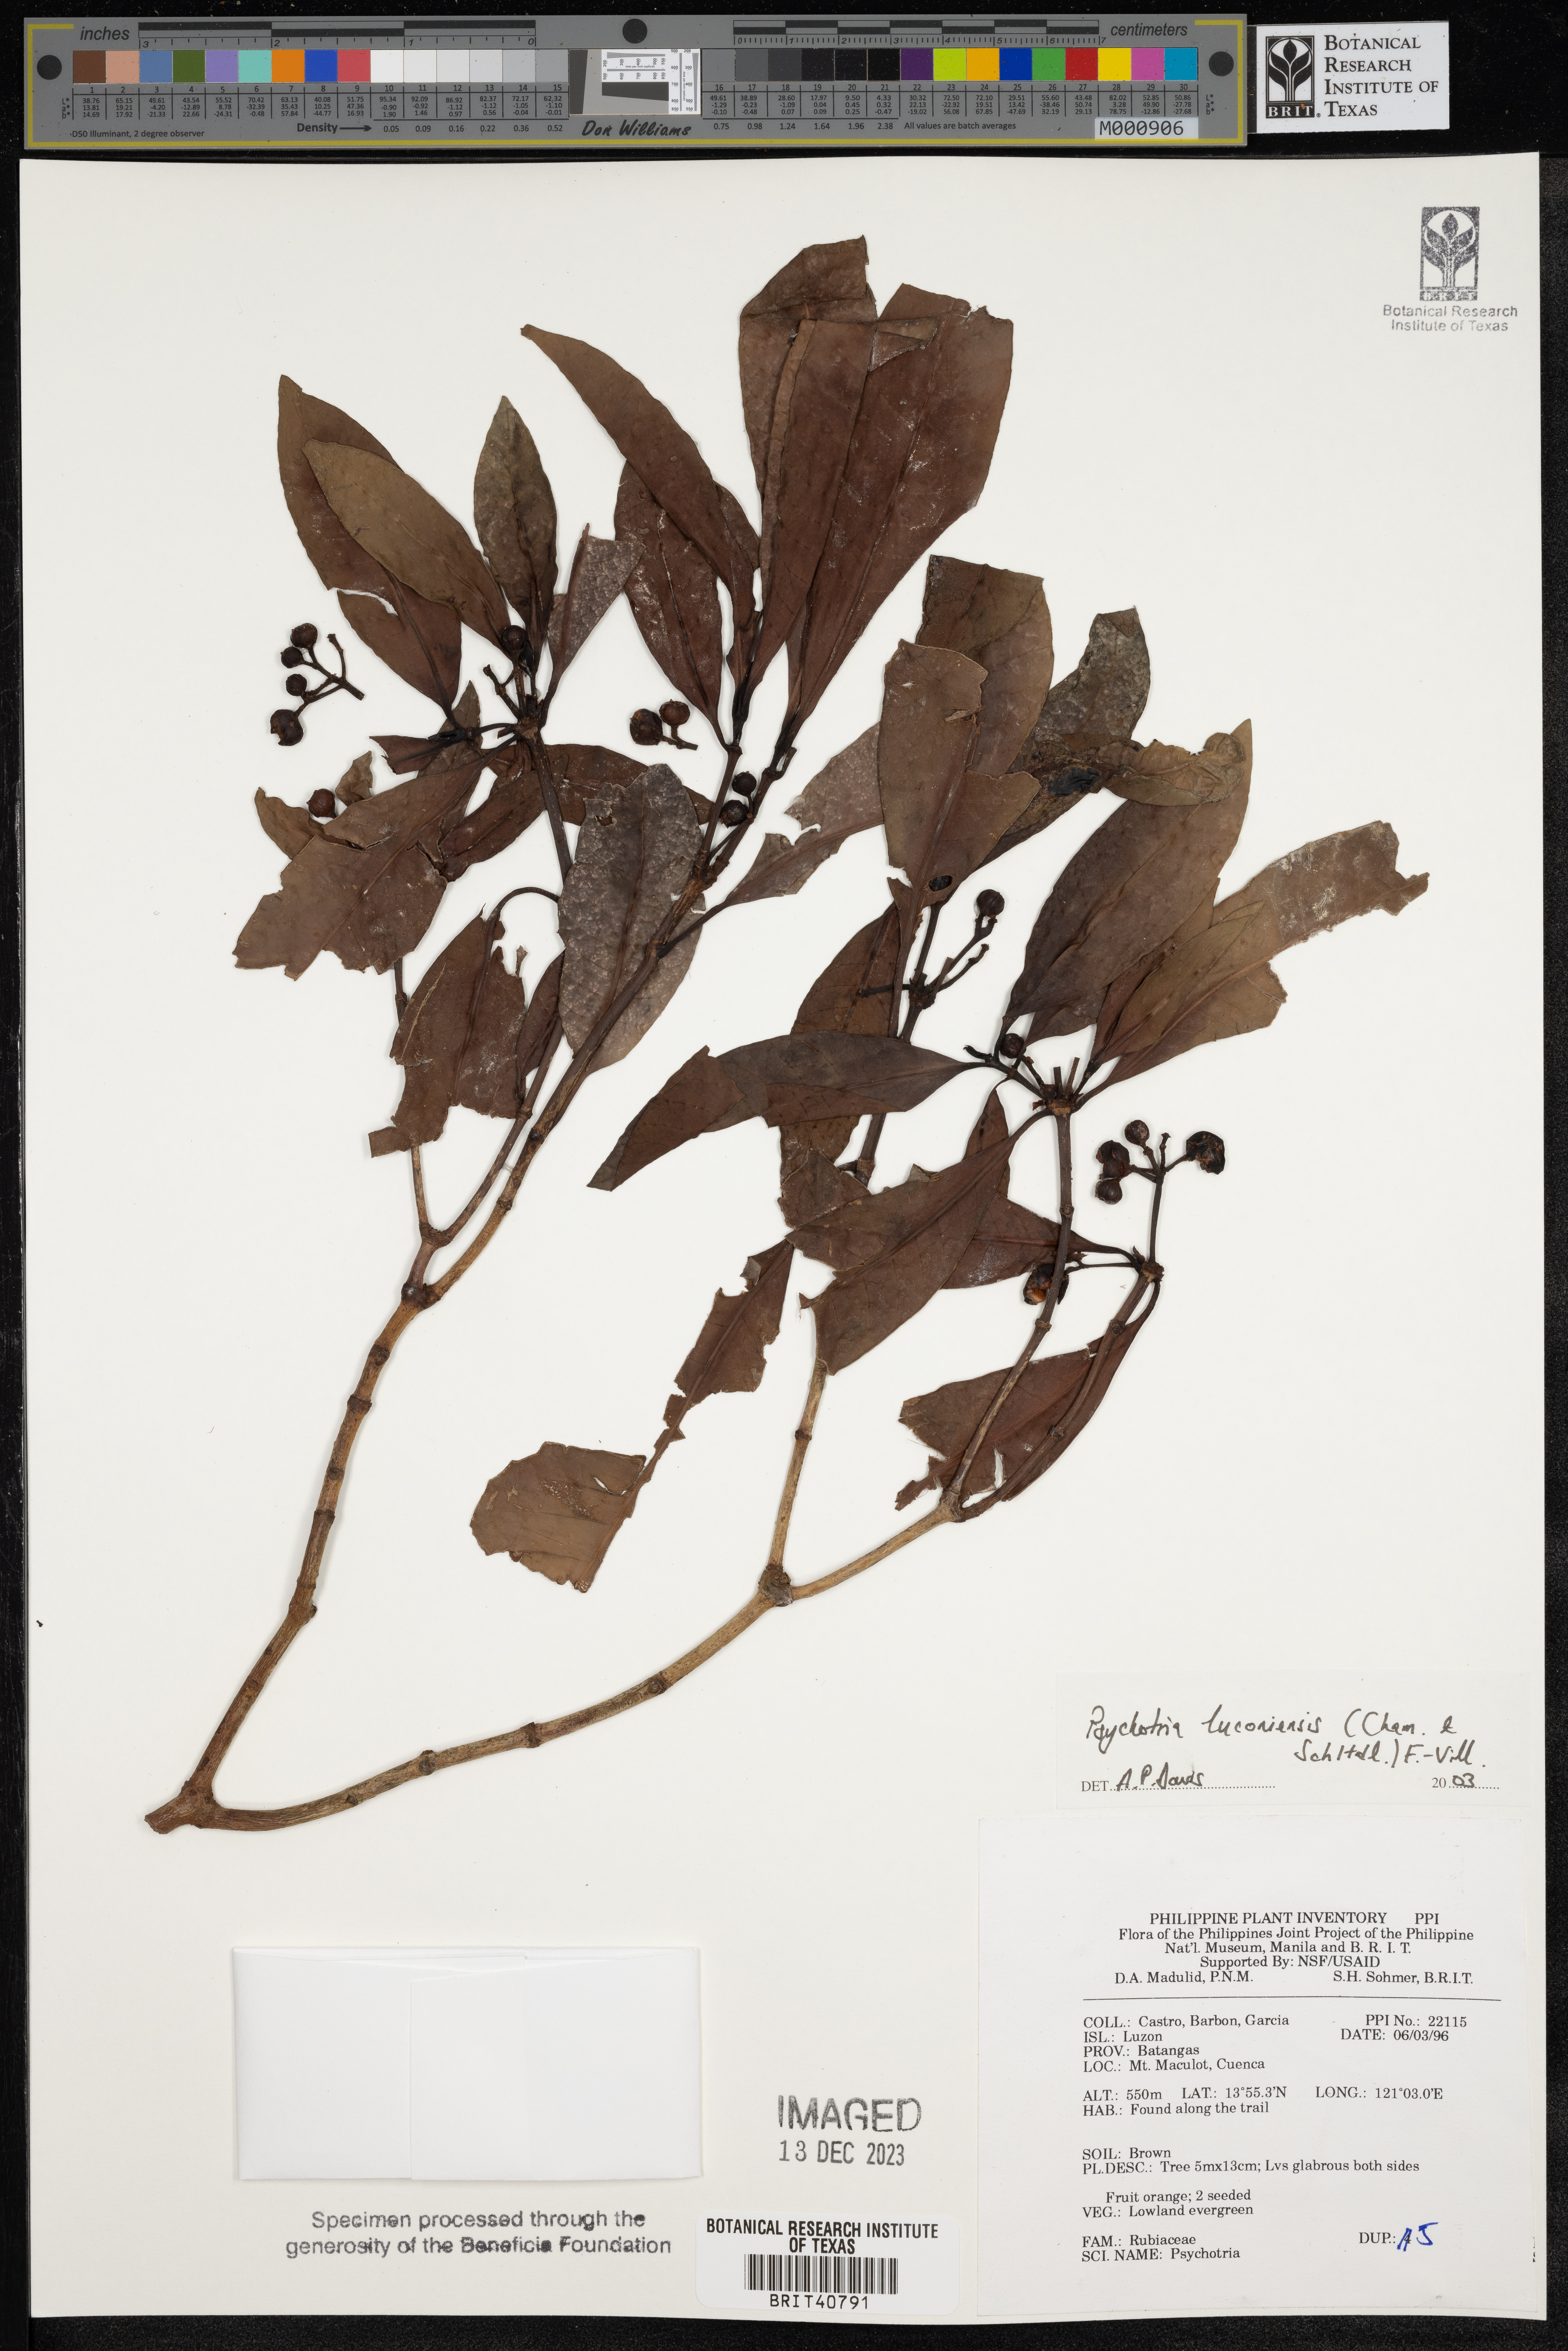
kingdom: Plantae
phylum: Tracheophyta
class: Magnoliopsida
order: Gentianales
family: Rubiaceae
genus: Psychotria
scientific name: Psychotria luzoniensis
